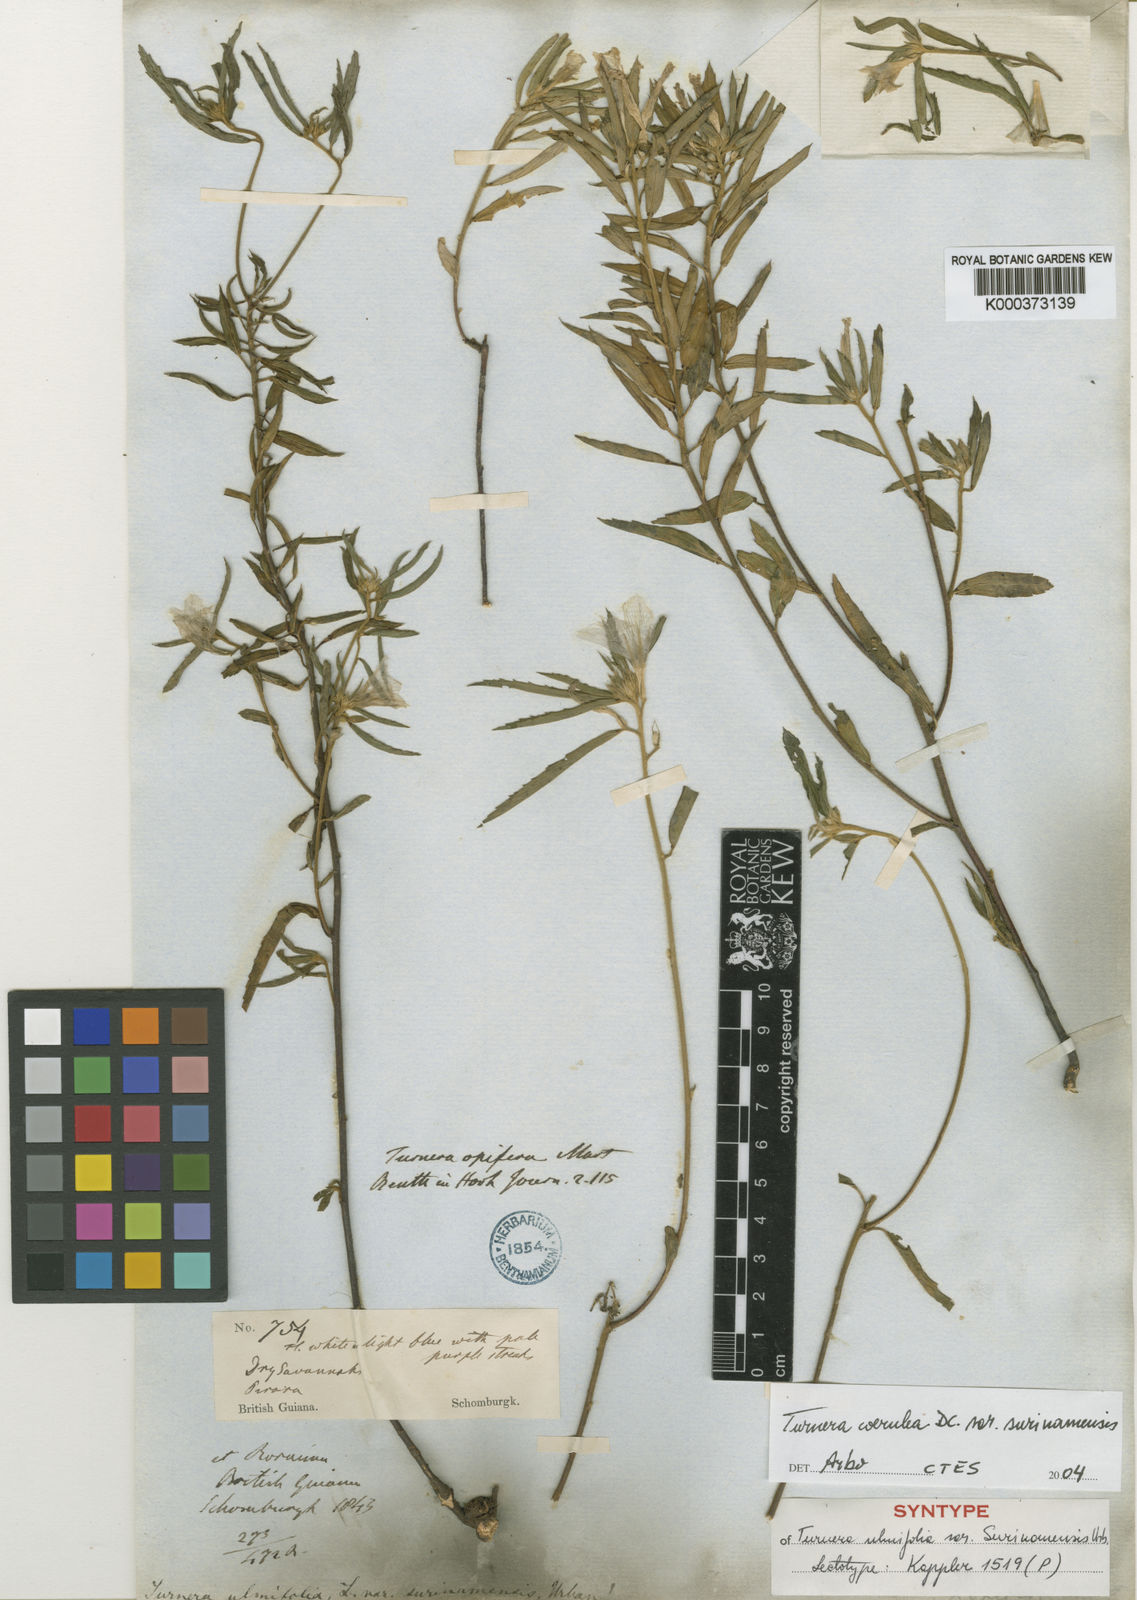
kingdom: Plantae
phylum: Tracheophyta
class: Magnoliopsida
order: Malpighiales
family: Turneraceae
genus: Turnera
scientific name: Turnera coerulea
